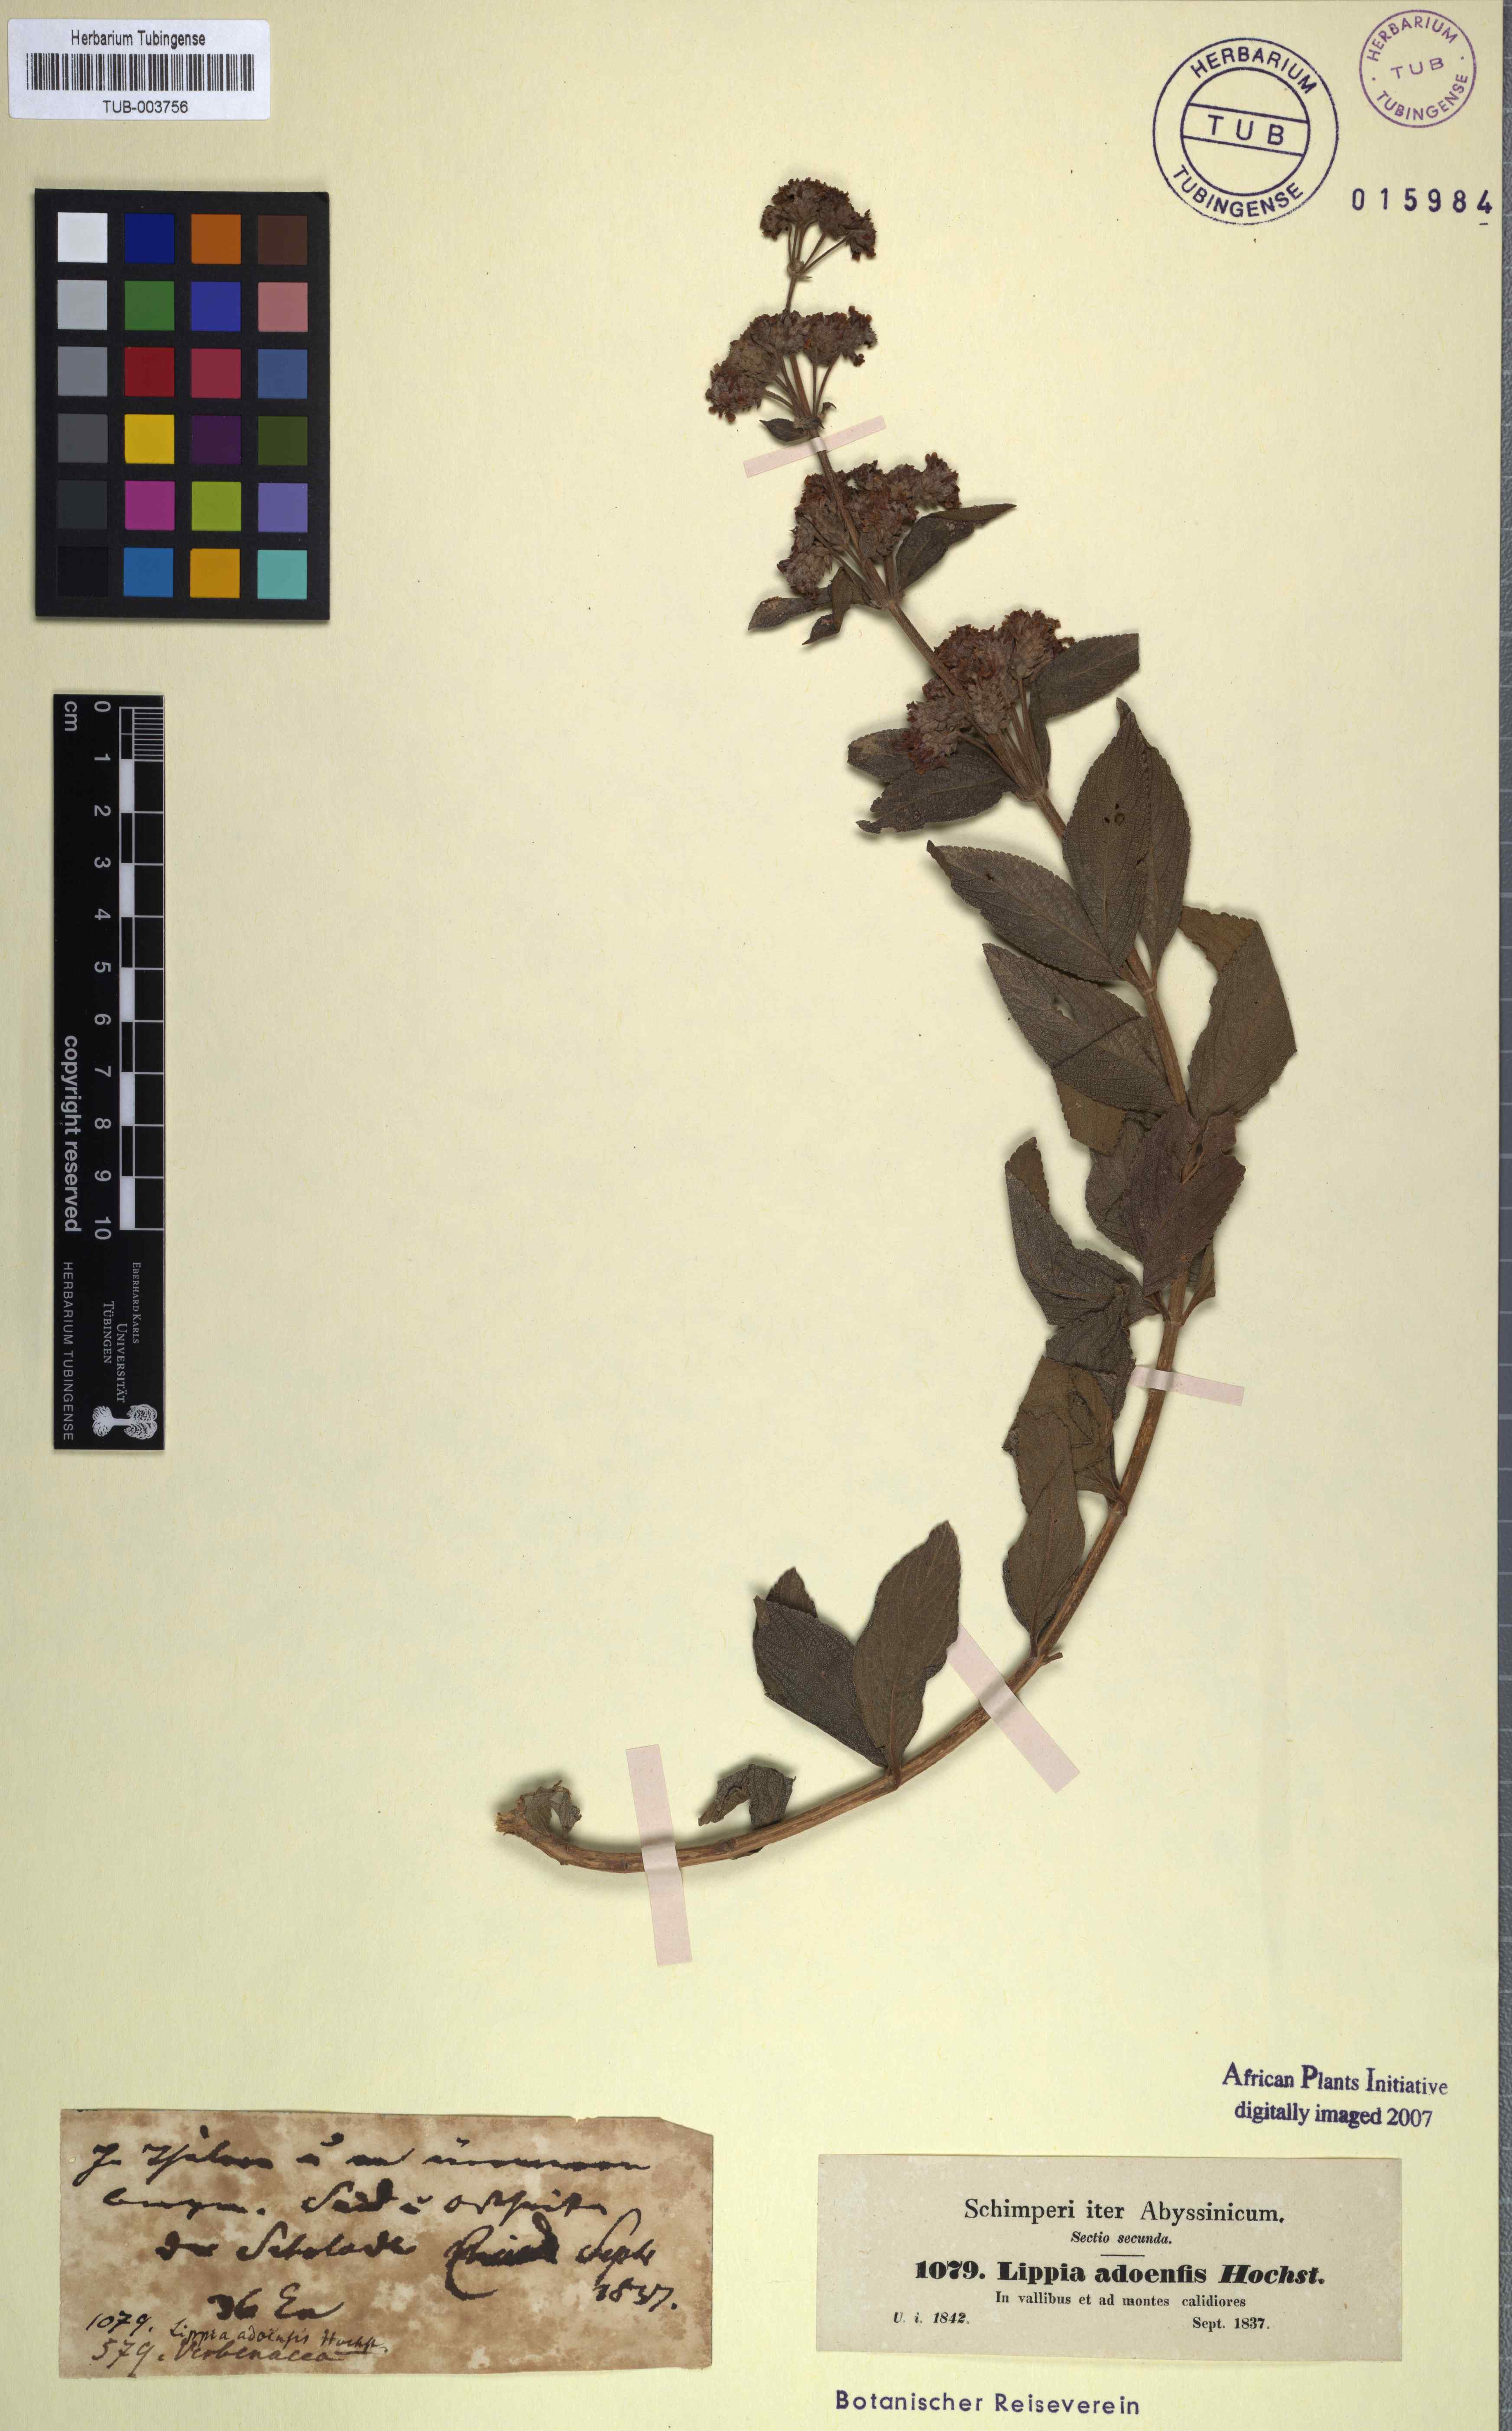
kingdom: Plantae
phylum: Tracheophyta
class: Magnoliopsida
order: Lamiales
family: Verbenaceae
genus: Lippia
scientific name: Lippia abyssinica
